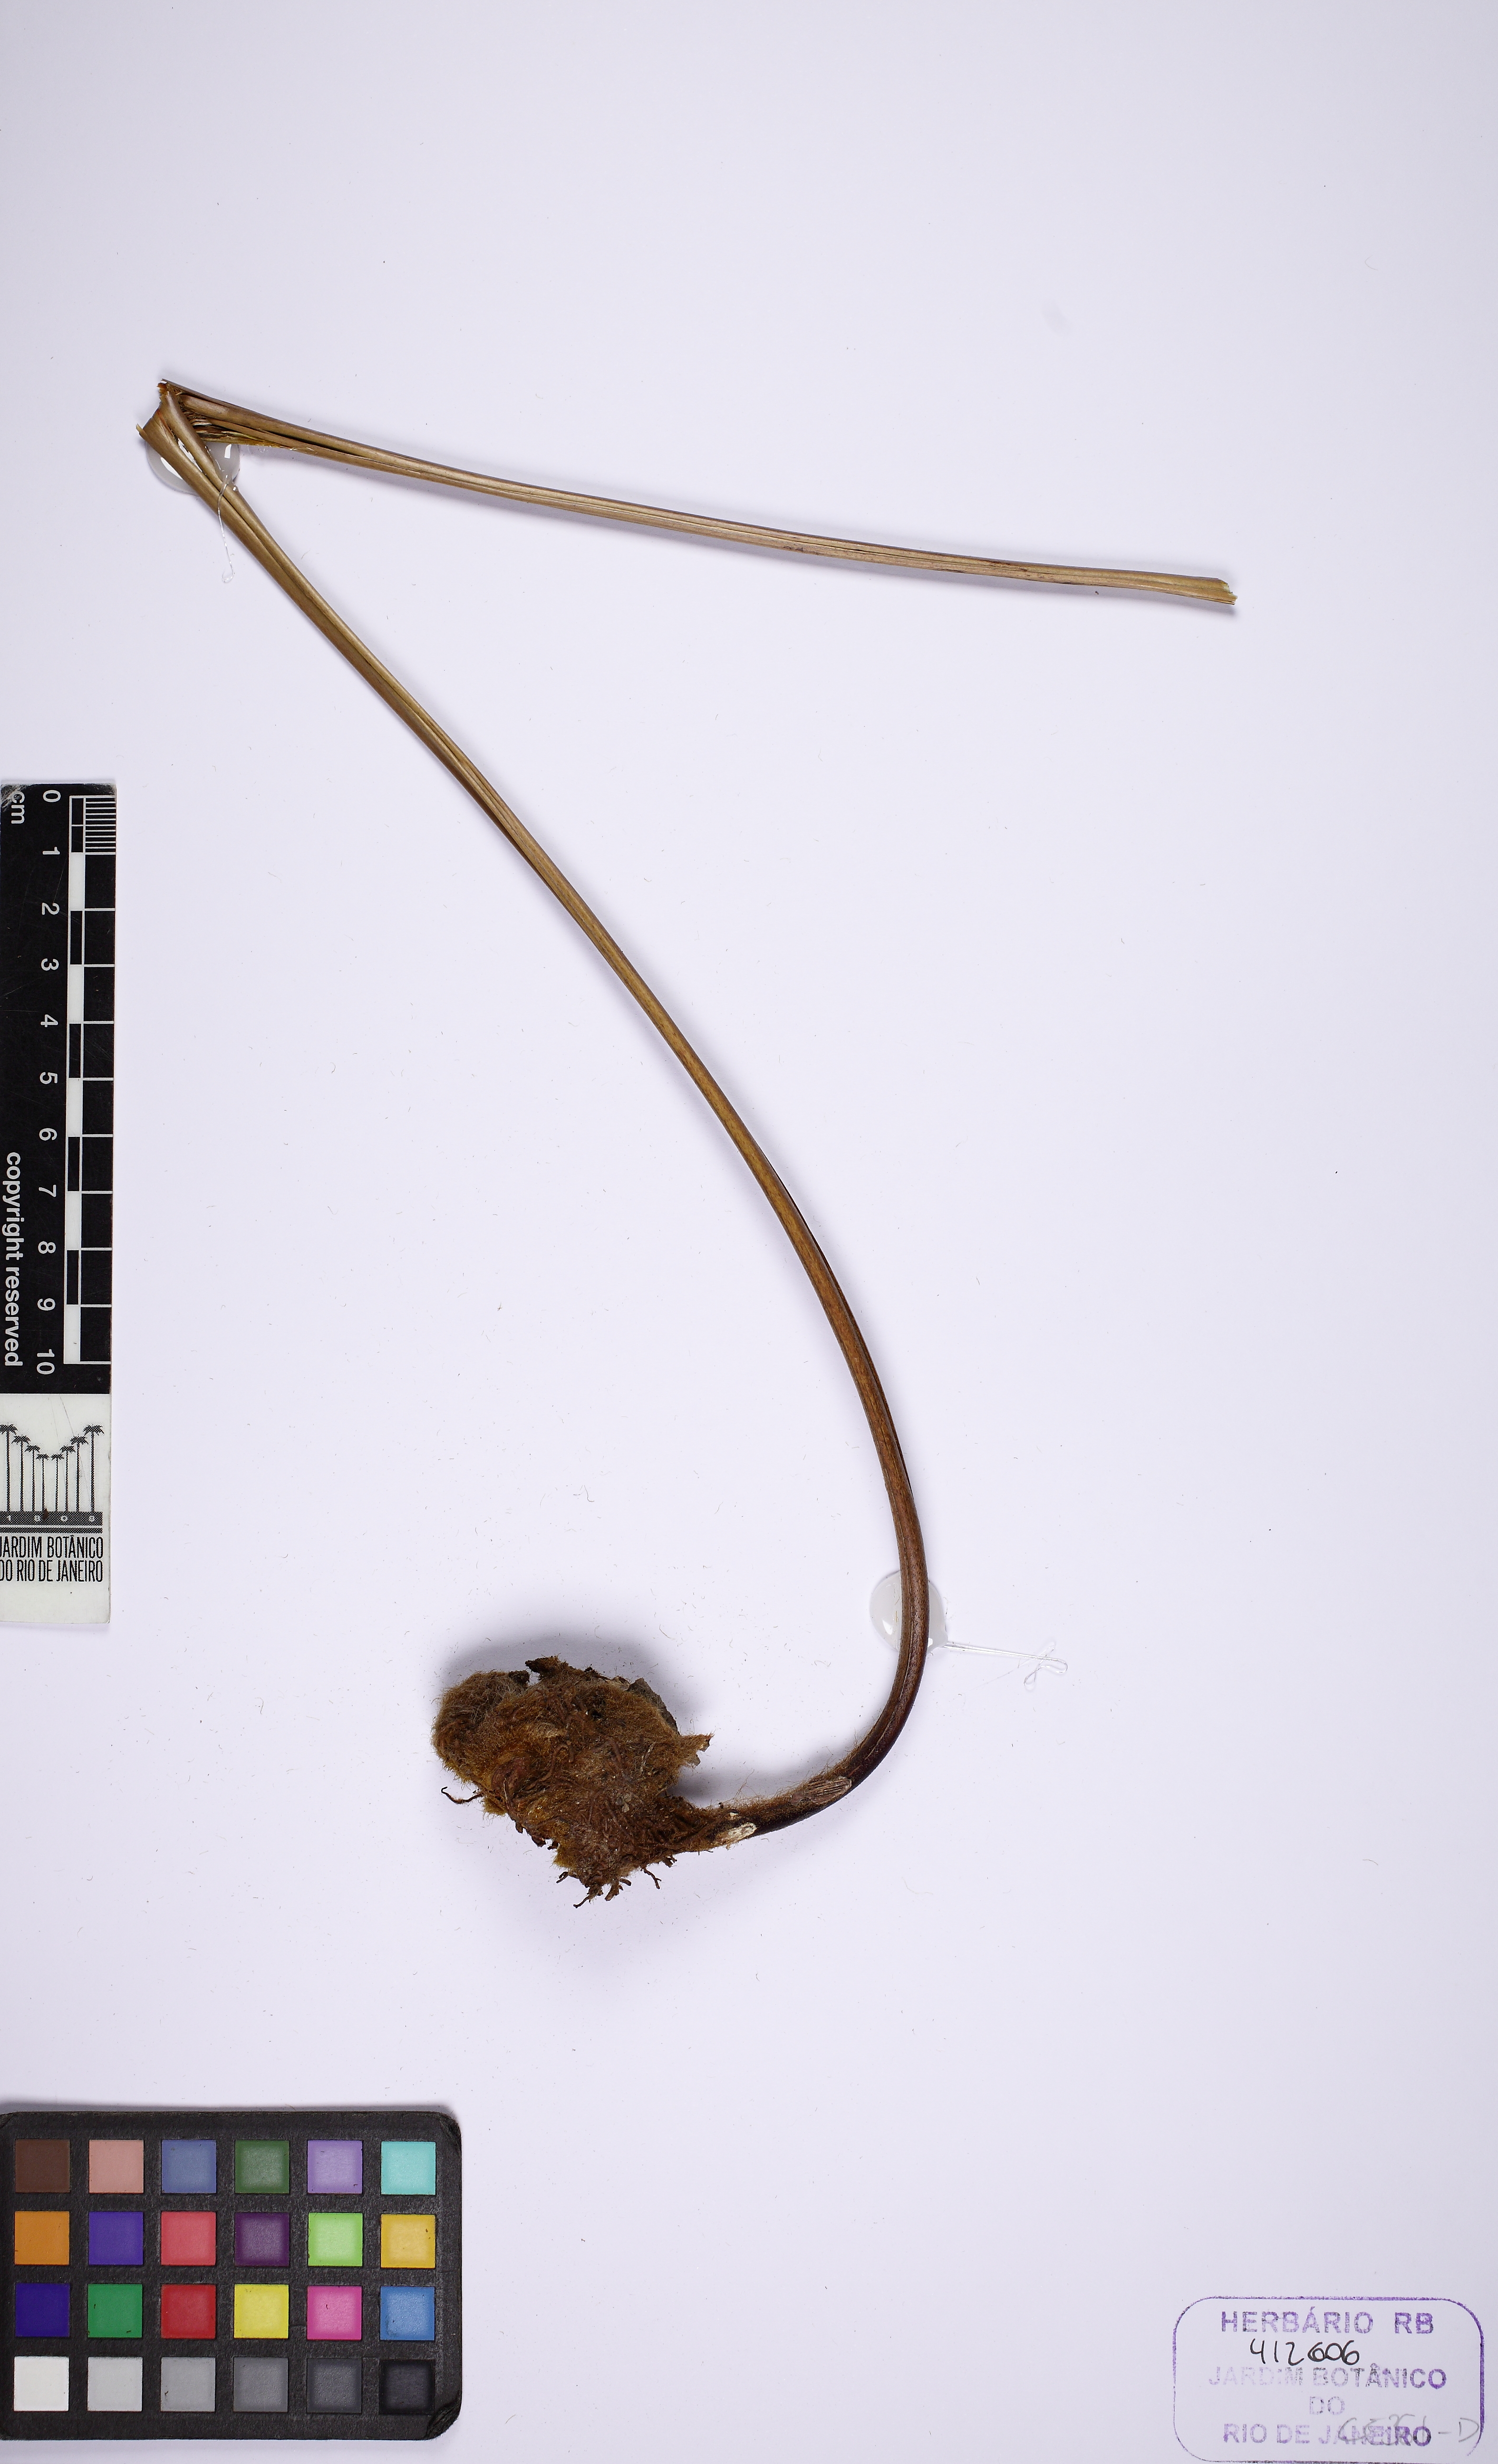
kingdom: Plantae
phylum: Tracheophyta
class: Polypodiopsida
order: Cyatheales
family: Dicksoniaceae
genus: Lophosoria
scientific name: Lophosoria quadripinnata
